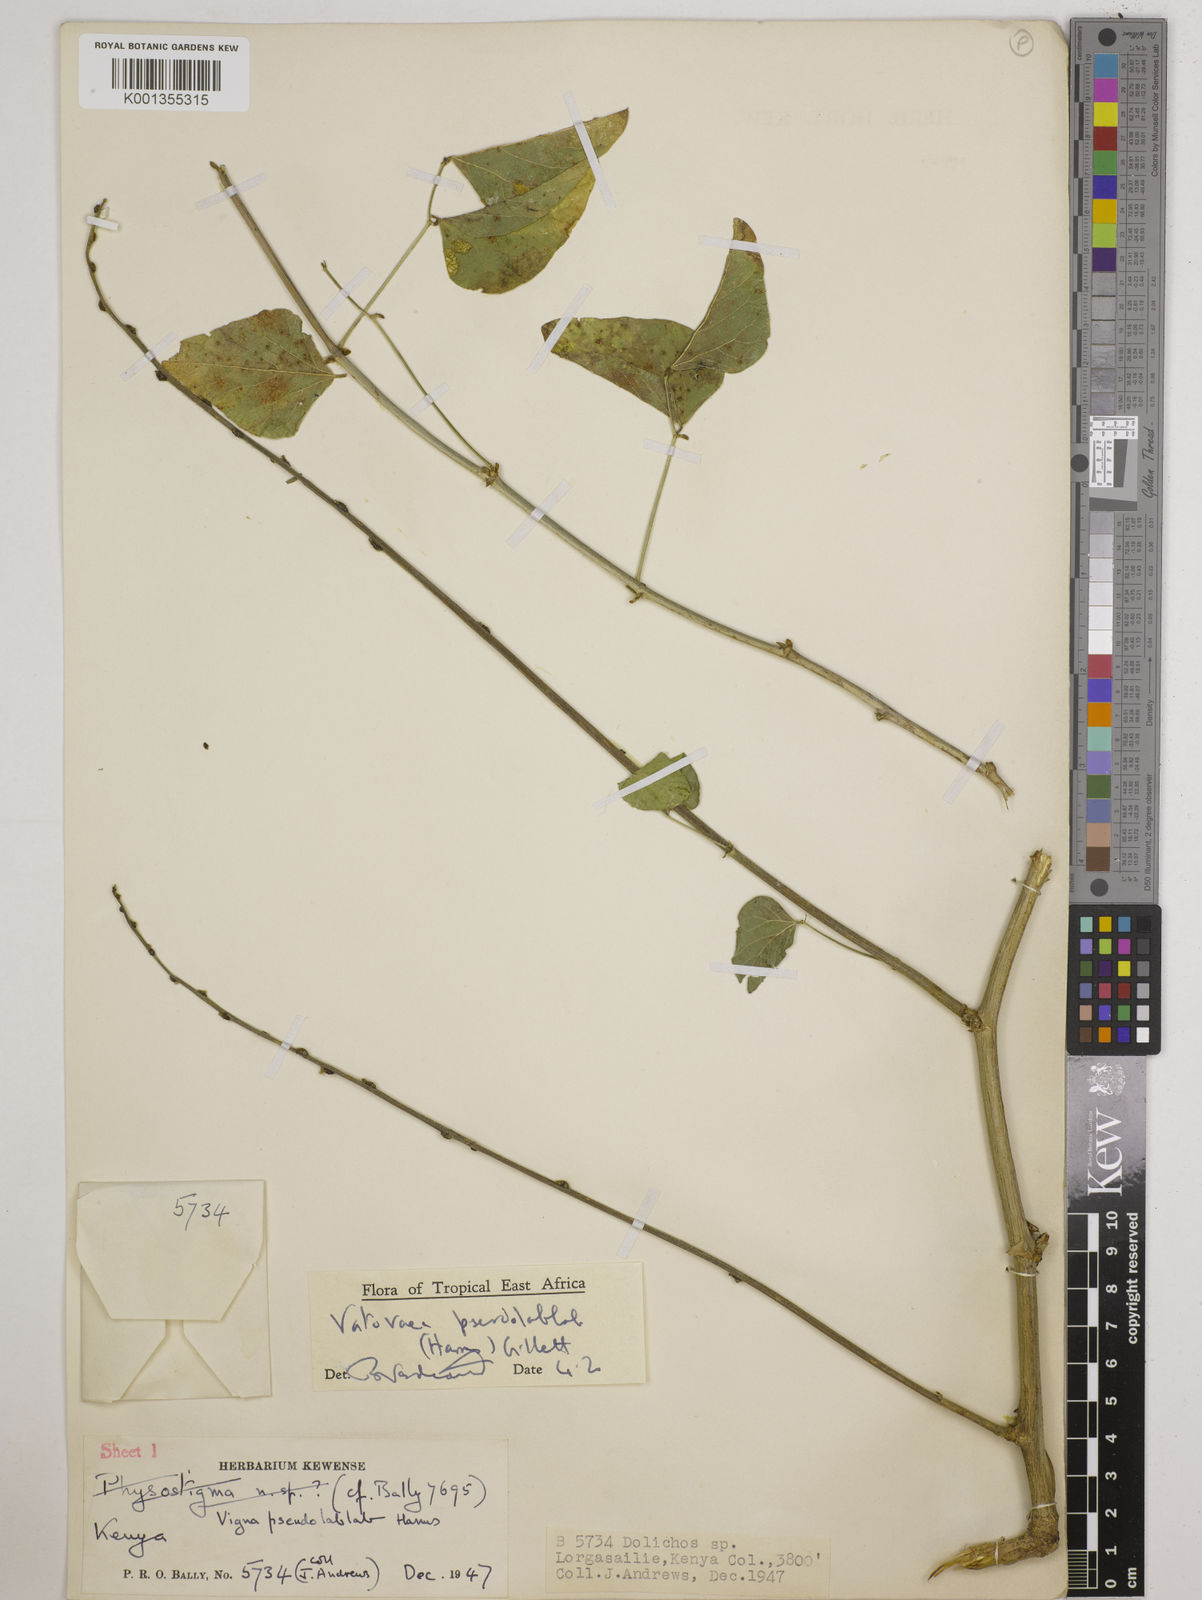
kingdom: Plantae
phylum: Tracheophyta
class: Magnoliopsida
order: Fabales
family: Fabaceae
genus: Vatovaea
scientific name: Vatovaea pseudolablab
